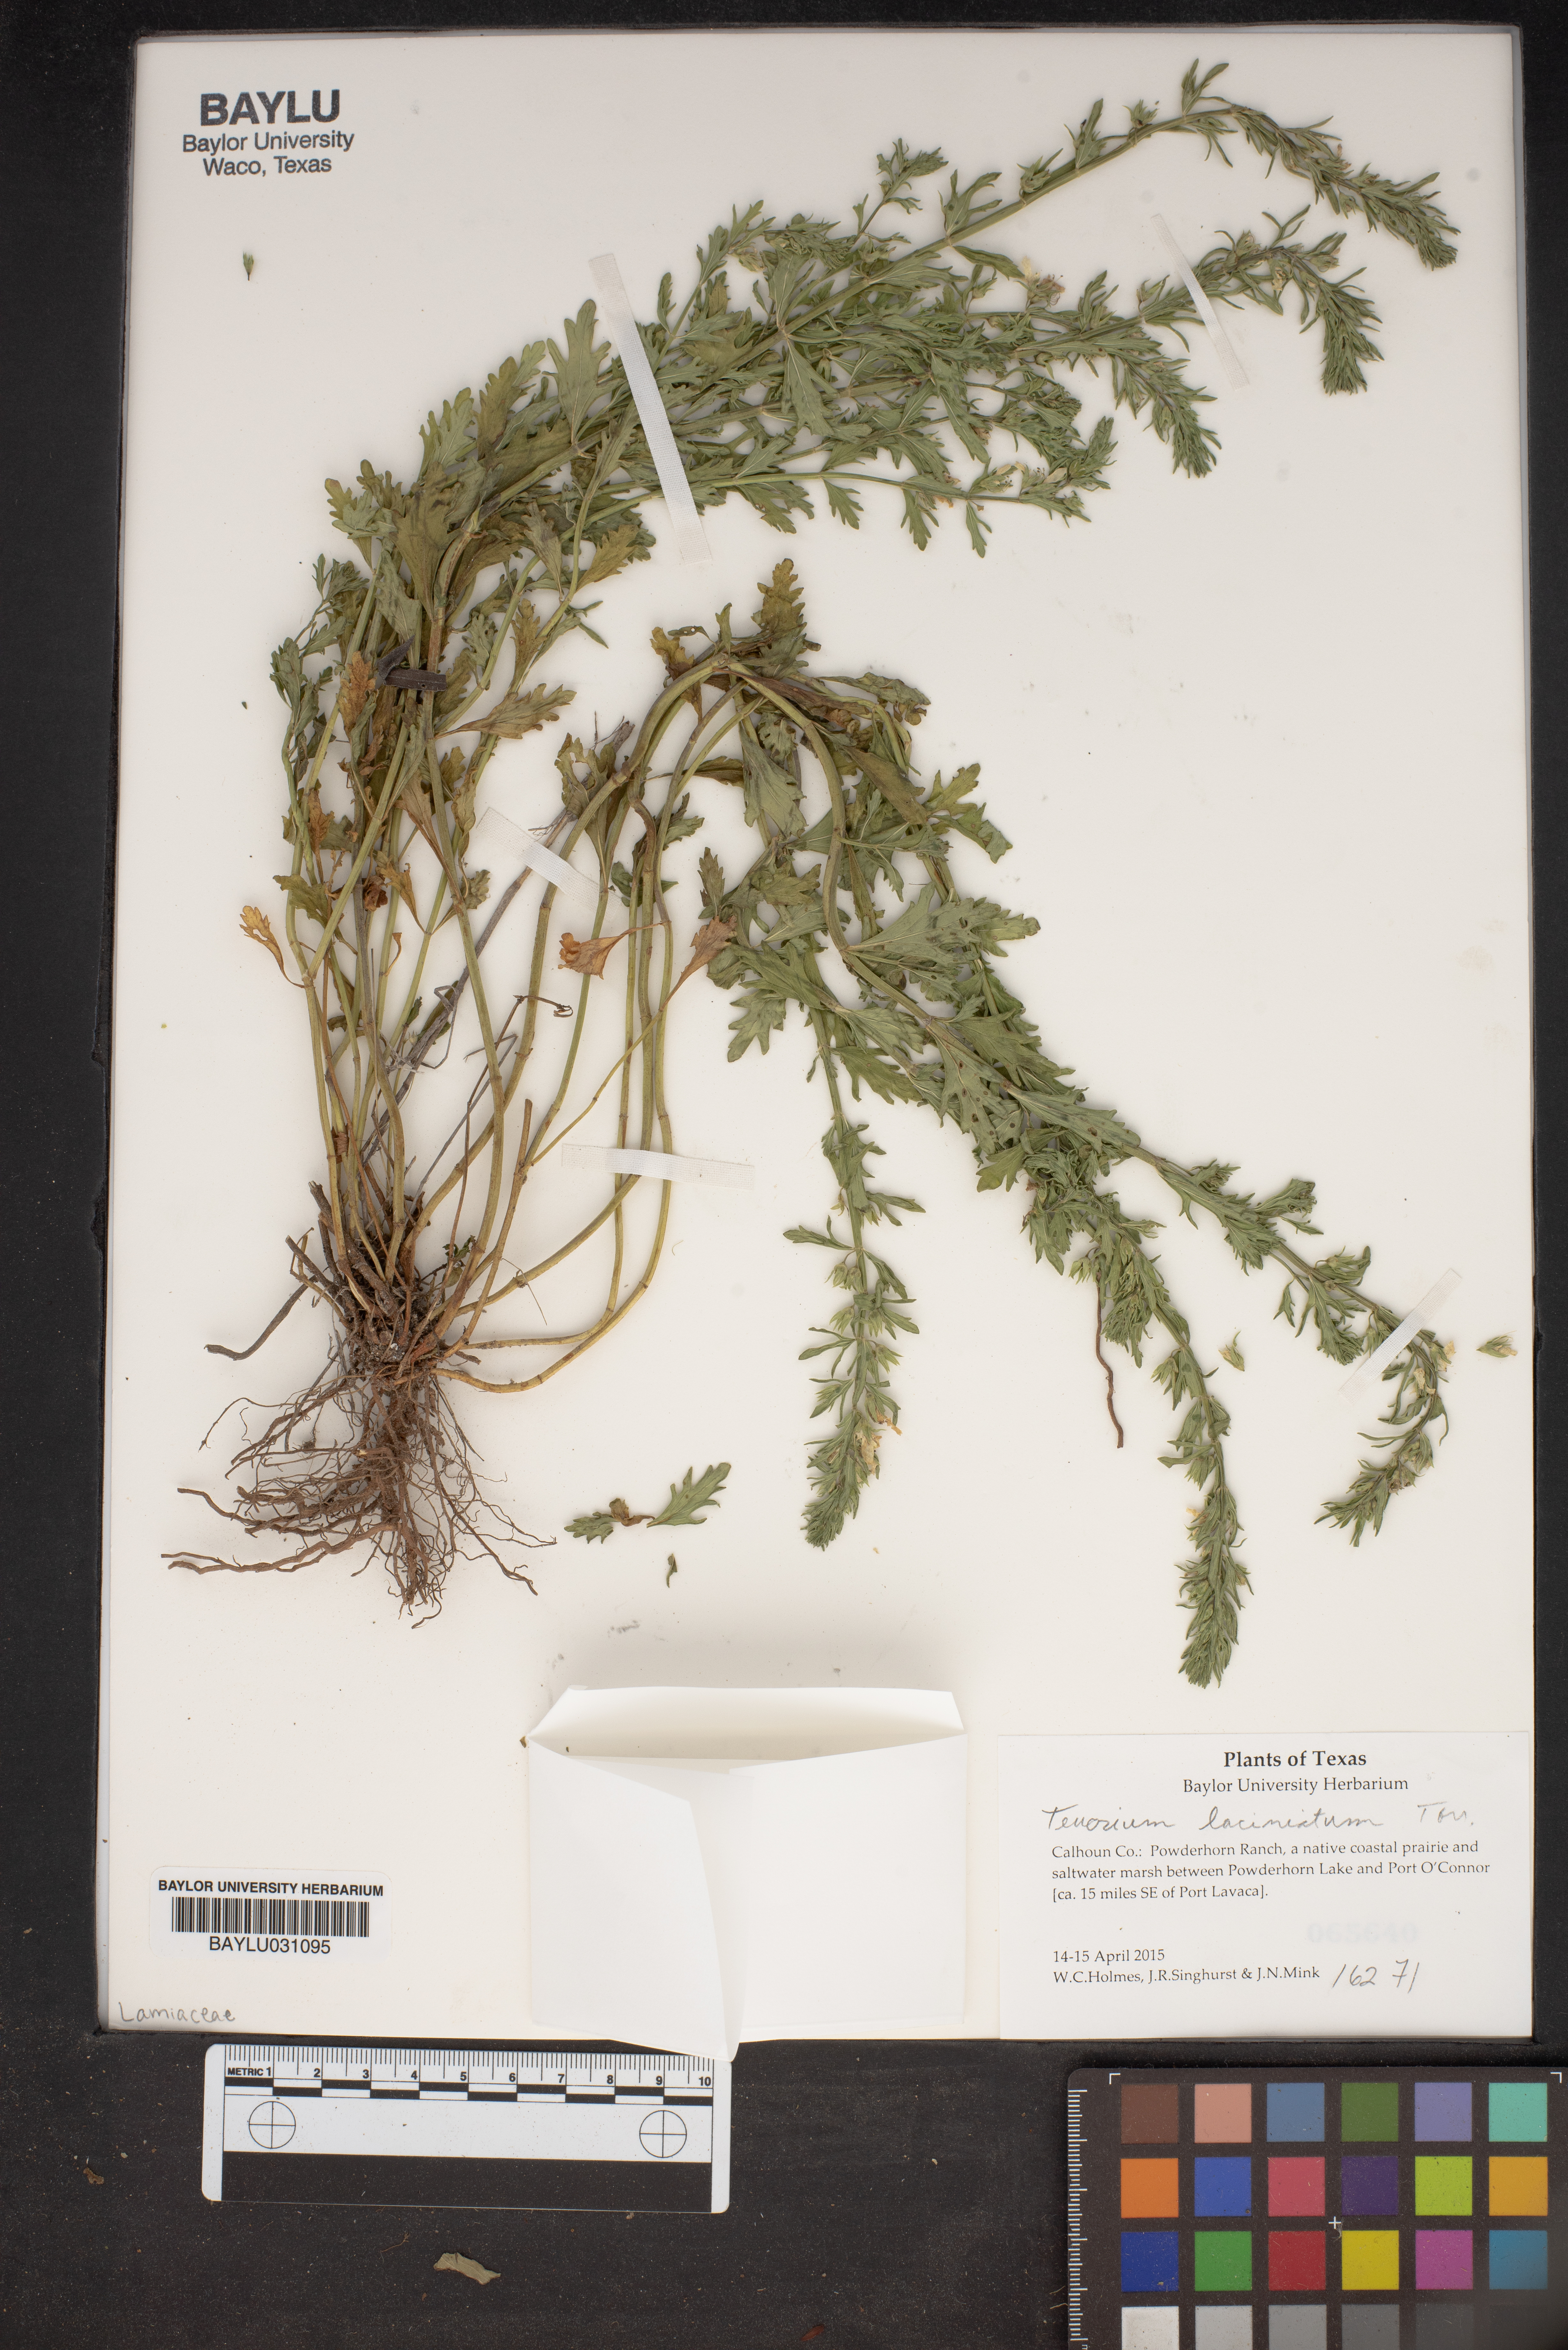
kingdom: Plantae
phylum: Tracheophyta
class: Magnoliopsida
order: Lamiales
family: Lamiaceae
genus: Teucrium
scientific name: Teucrium laciniatum
